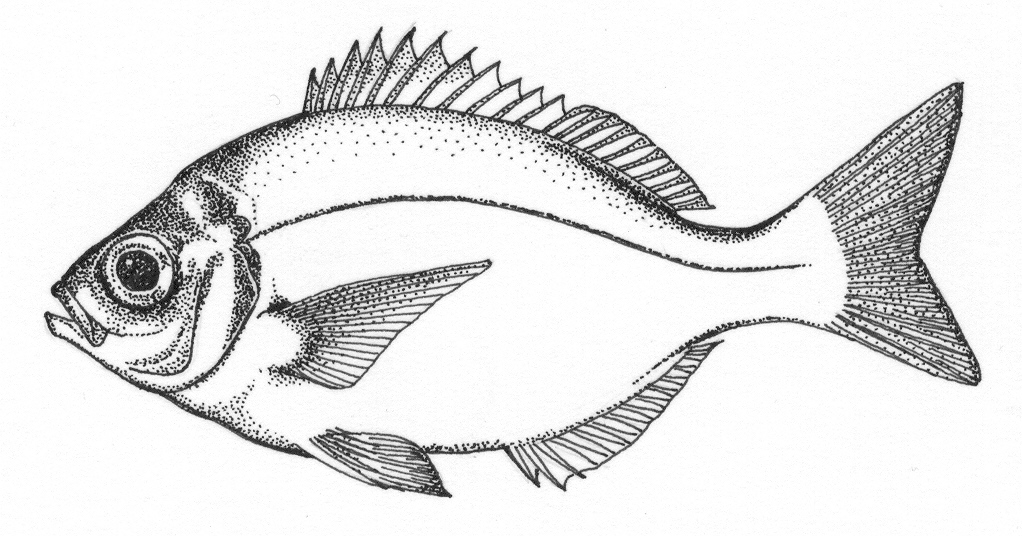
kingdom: Animalia
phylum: Chordata
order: Perciformes
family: Sparidae
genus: Boopsoidea
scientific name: Boopsoidea inornata
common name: Fransmadam
